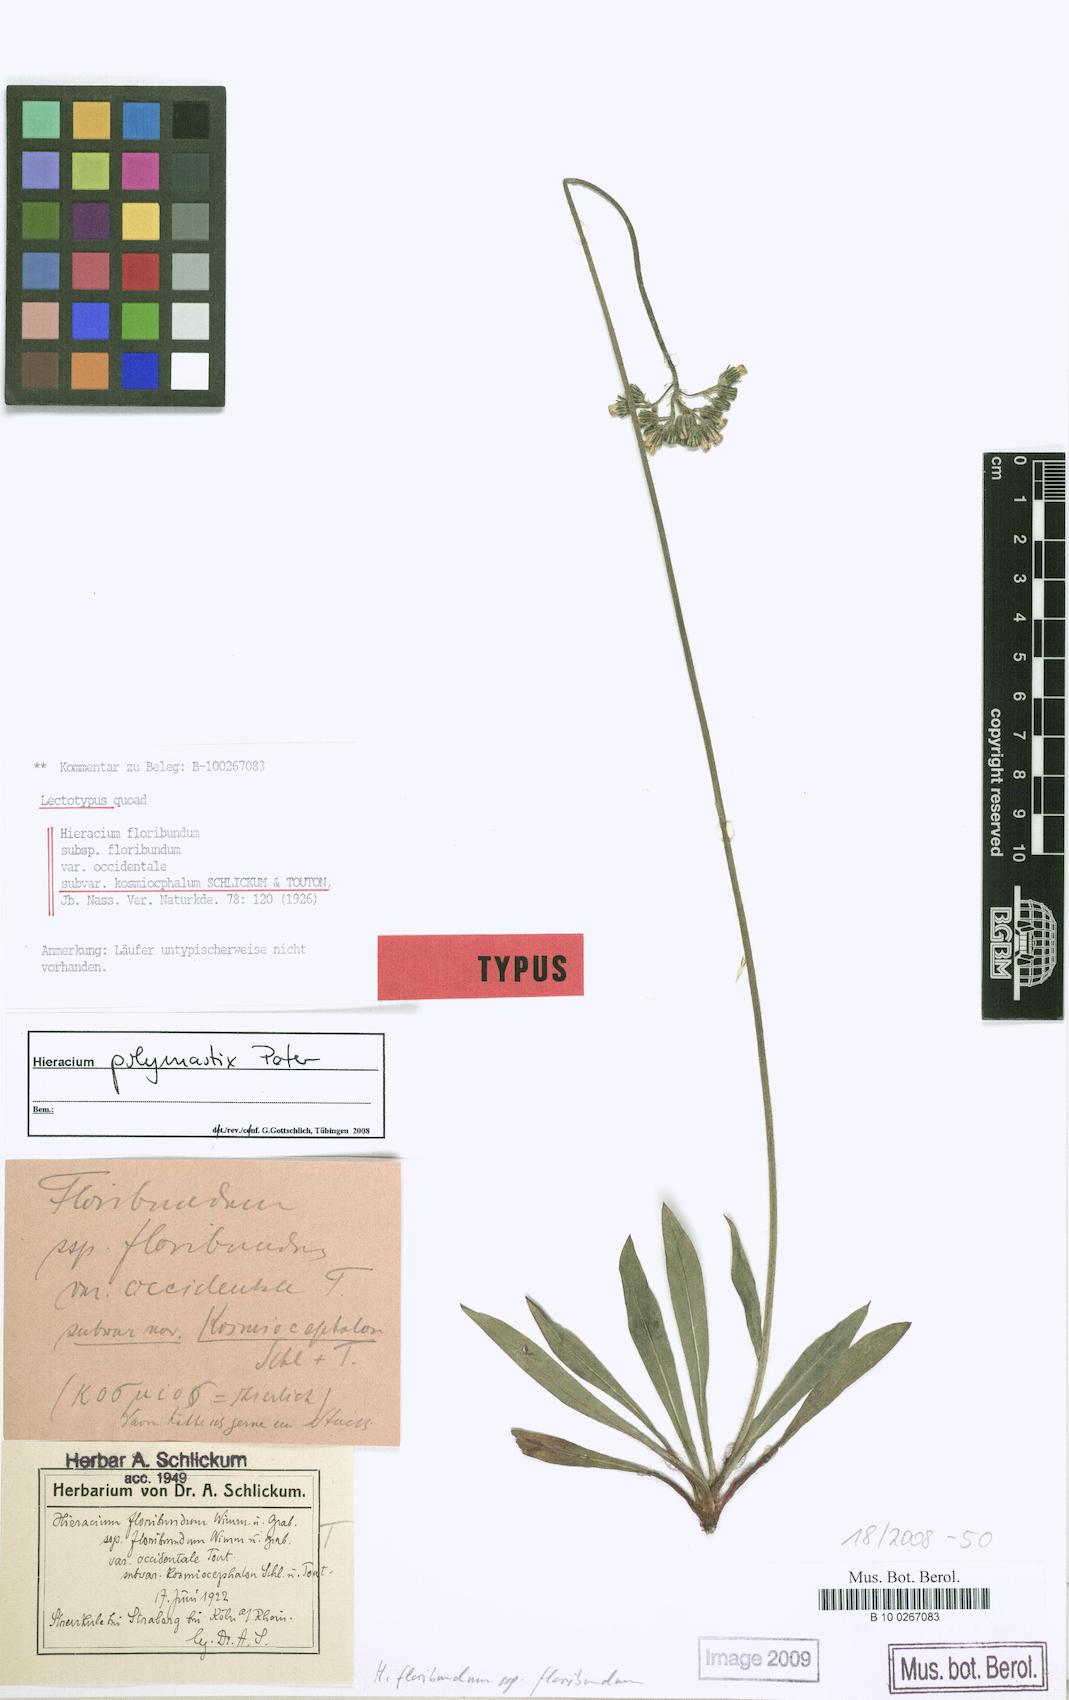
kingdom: Plantae
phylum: Tracheophyta
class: Magnoliopsida
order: Asterales
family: Asteraceae
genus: Pilosella
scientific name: Pilosella polymastix
